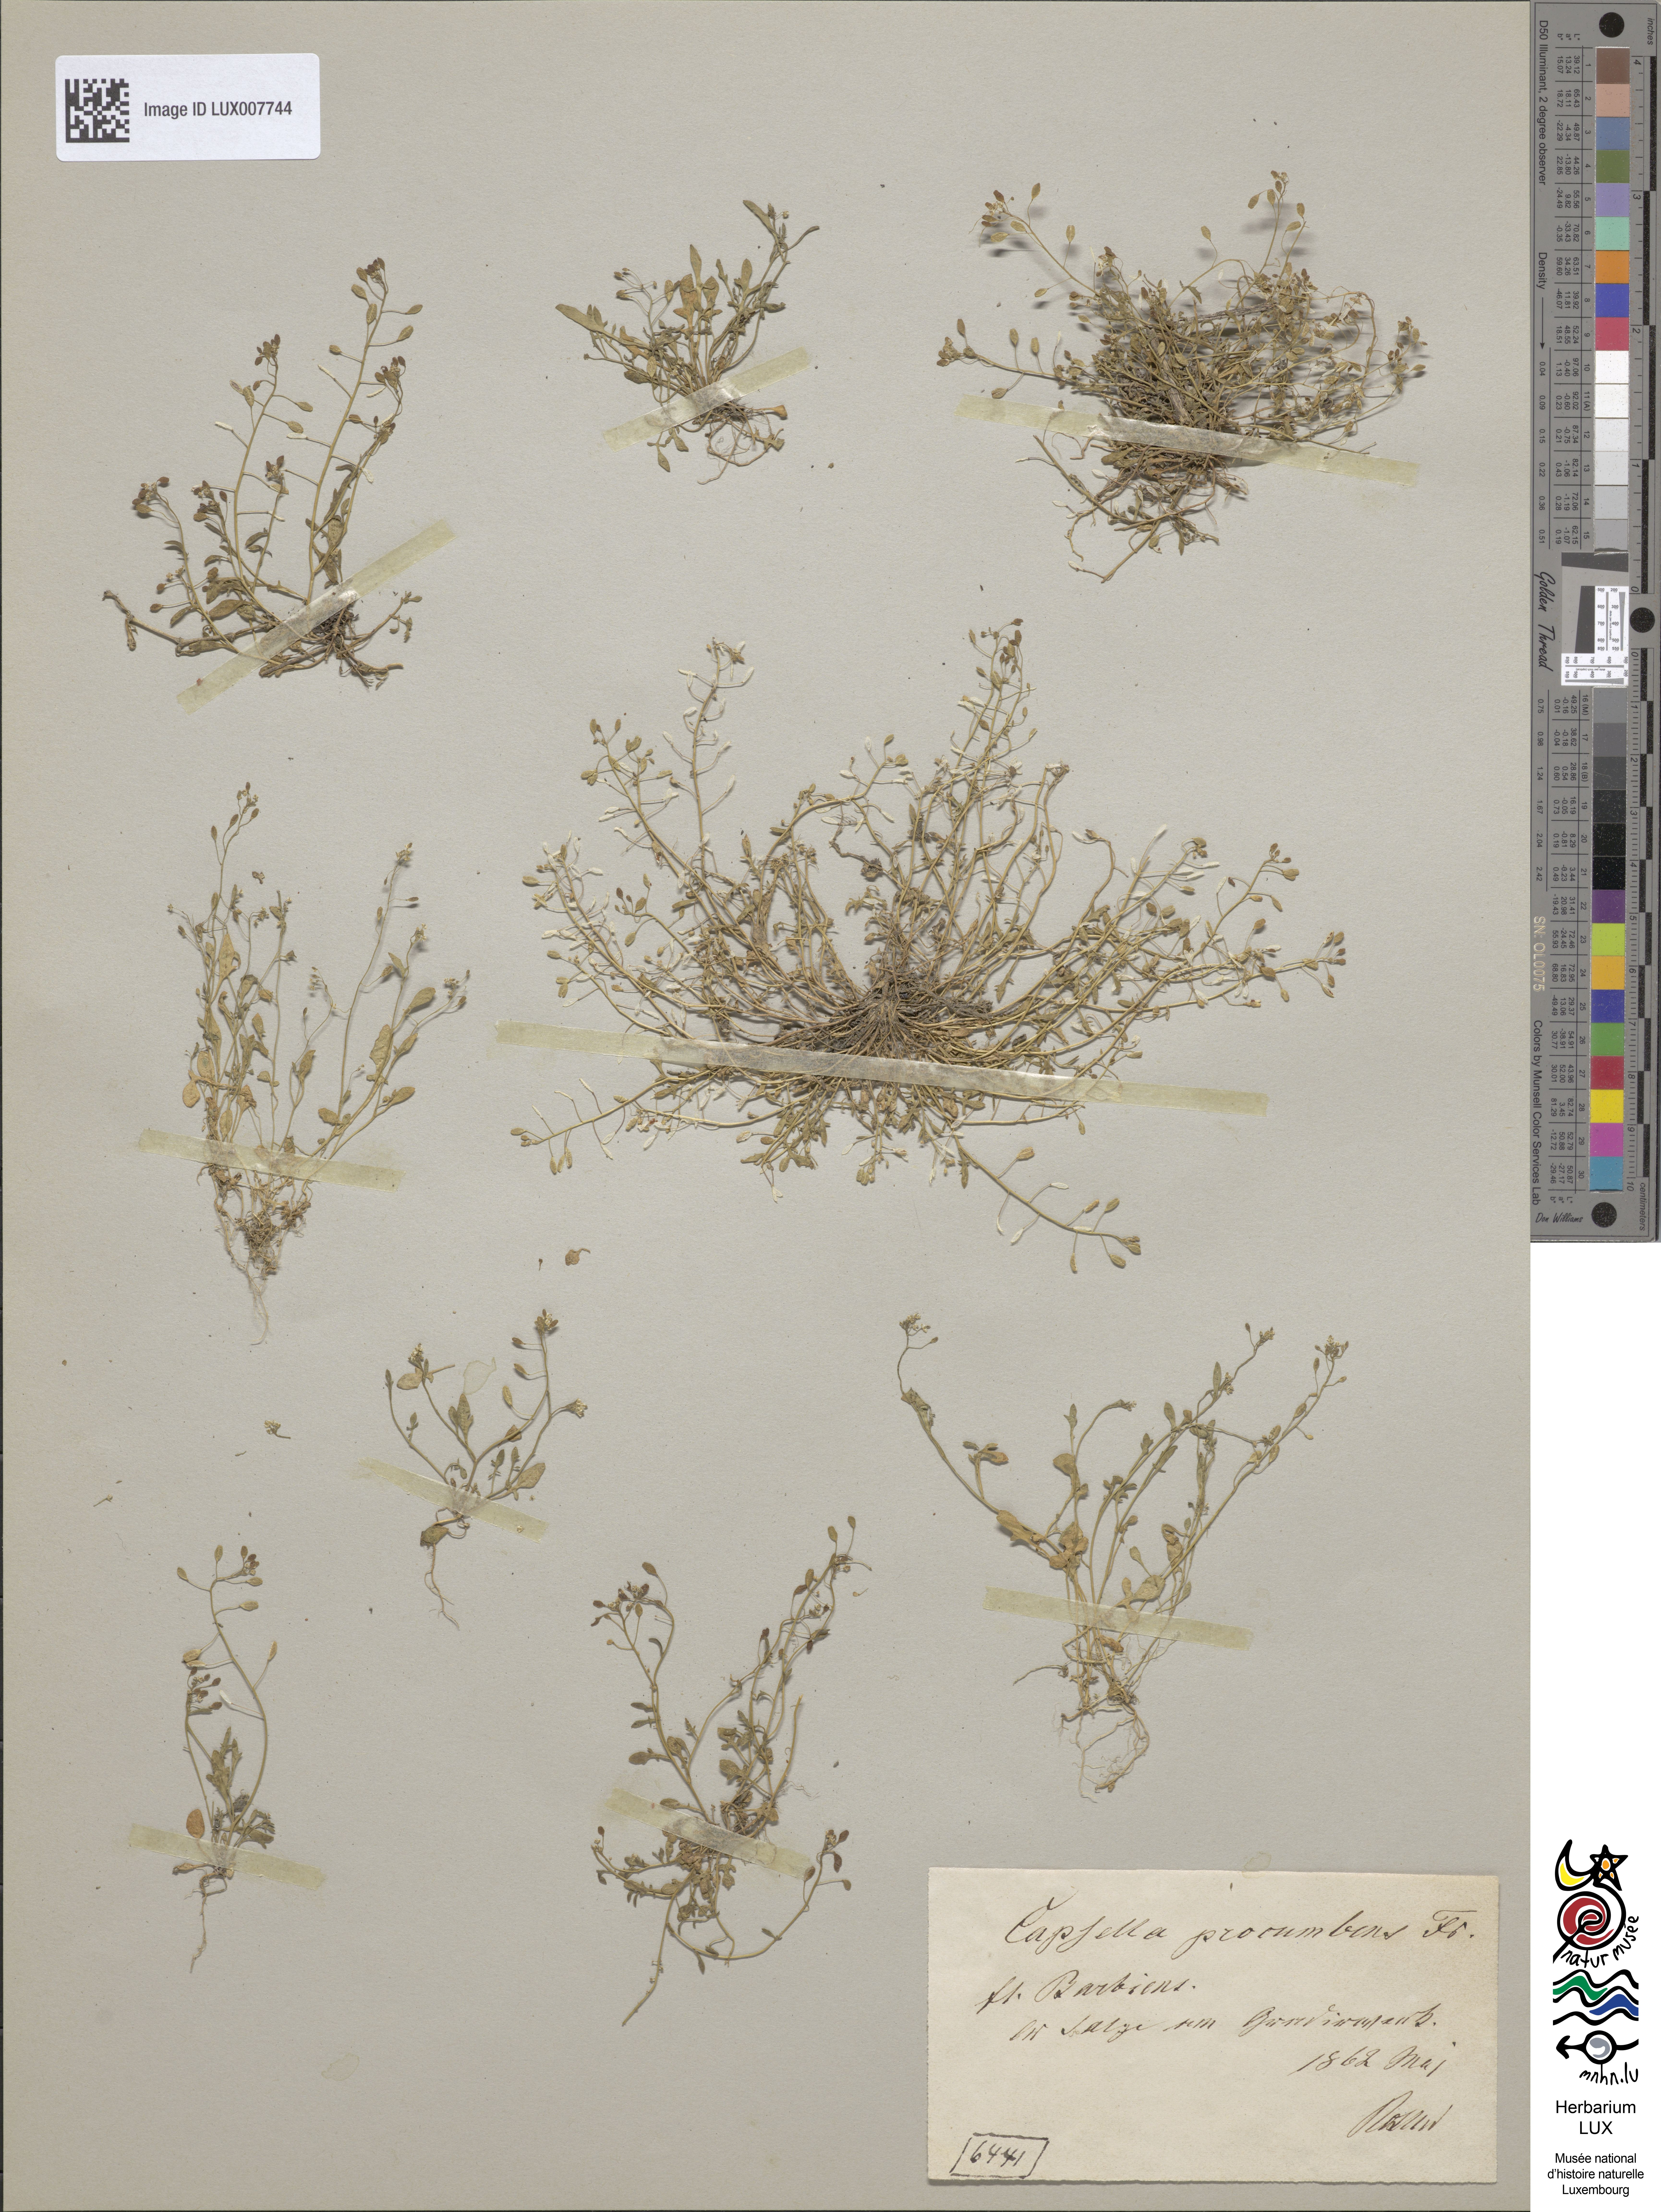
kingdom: Plantae
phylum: Tracheophyta
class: Magnoliopsida
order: Brassicales
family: Brassicaceae
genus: Hornungia
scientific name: Hornungia procumbens
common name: Oval purse
